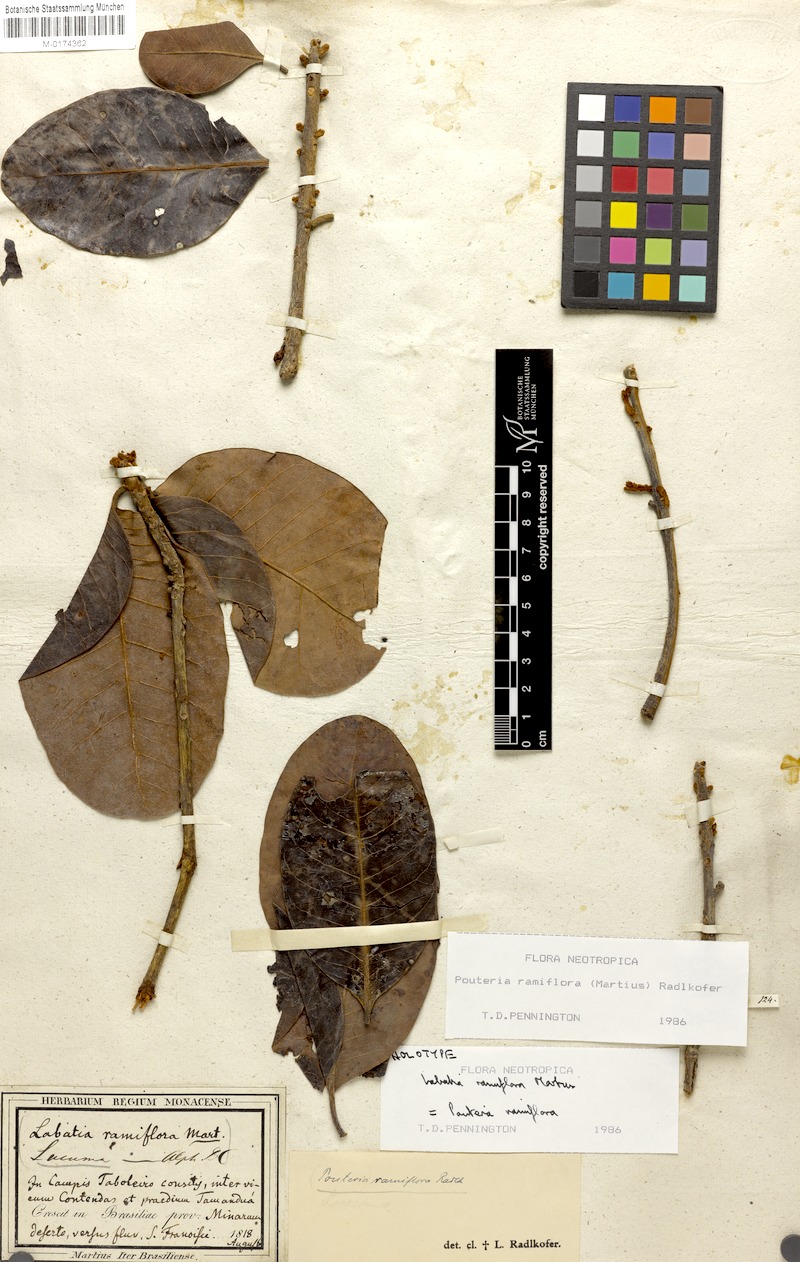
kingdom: Plantae
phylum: Tracheophyta
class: Magnoliopsida
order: Ericales
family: Sapotaceae
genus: Pouteria
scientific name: Pouteria ramiflora
